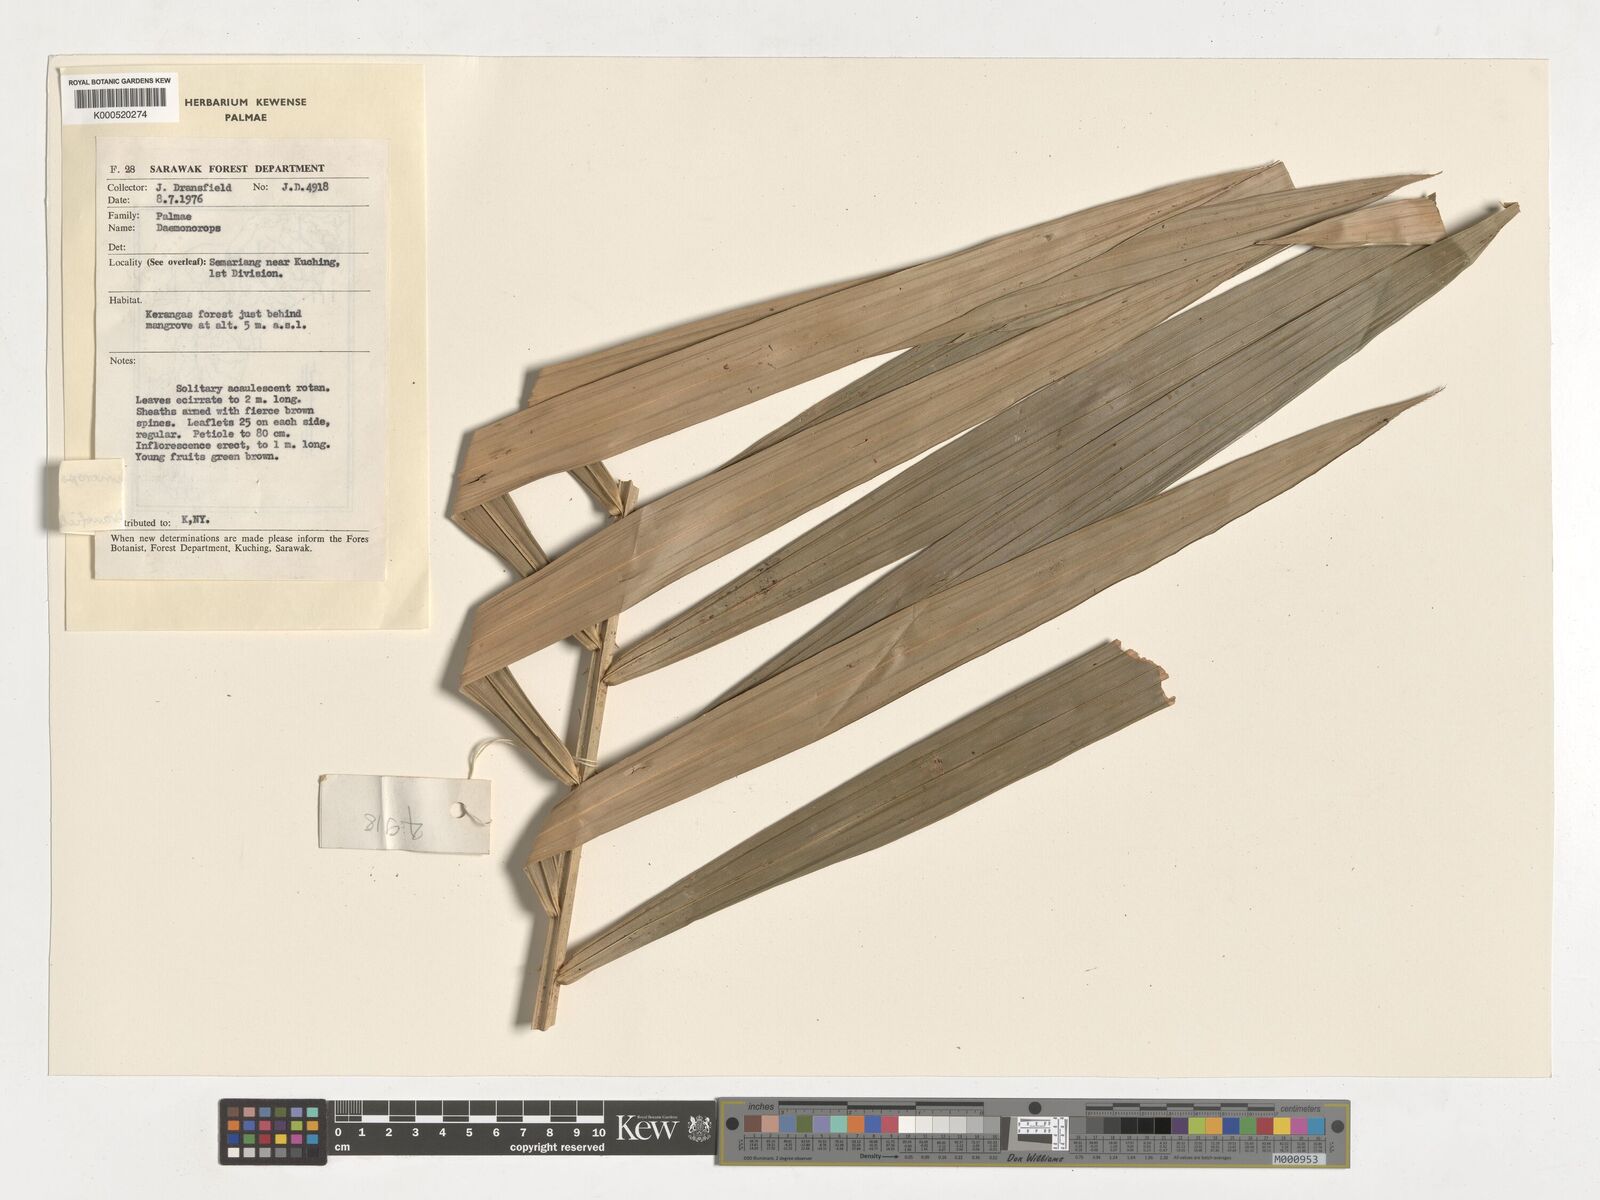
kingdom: Plantae
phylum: Tracheophyta
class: Liliopsida
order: Arecales
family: Arecaceae
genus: Calamus
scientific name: Calamus acamptostachys
